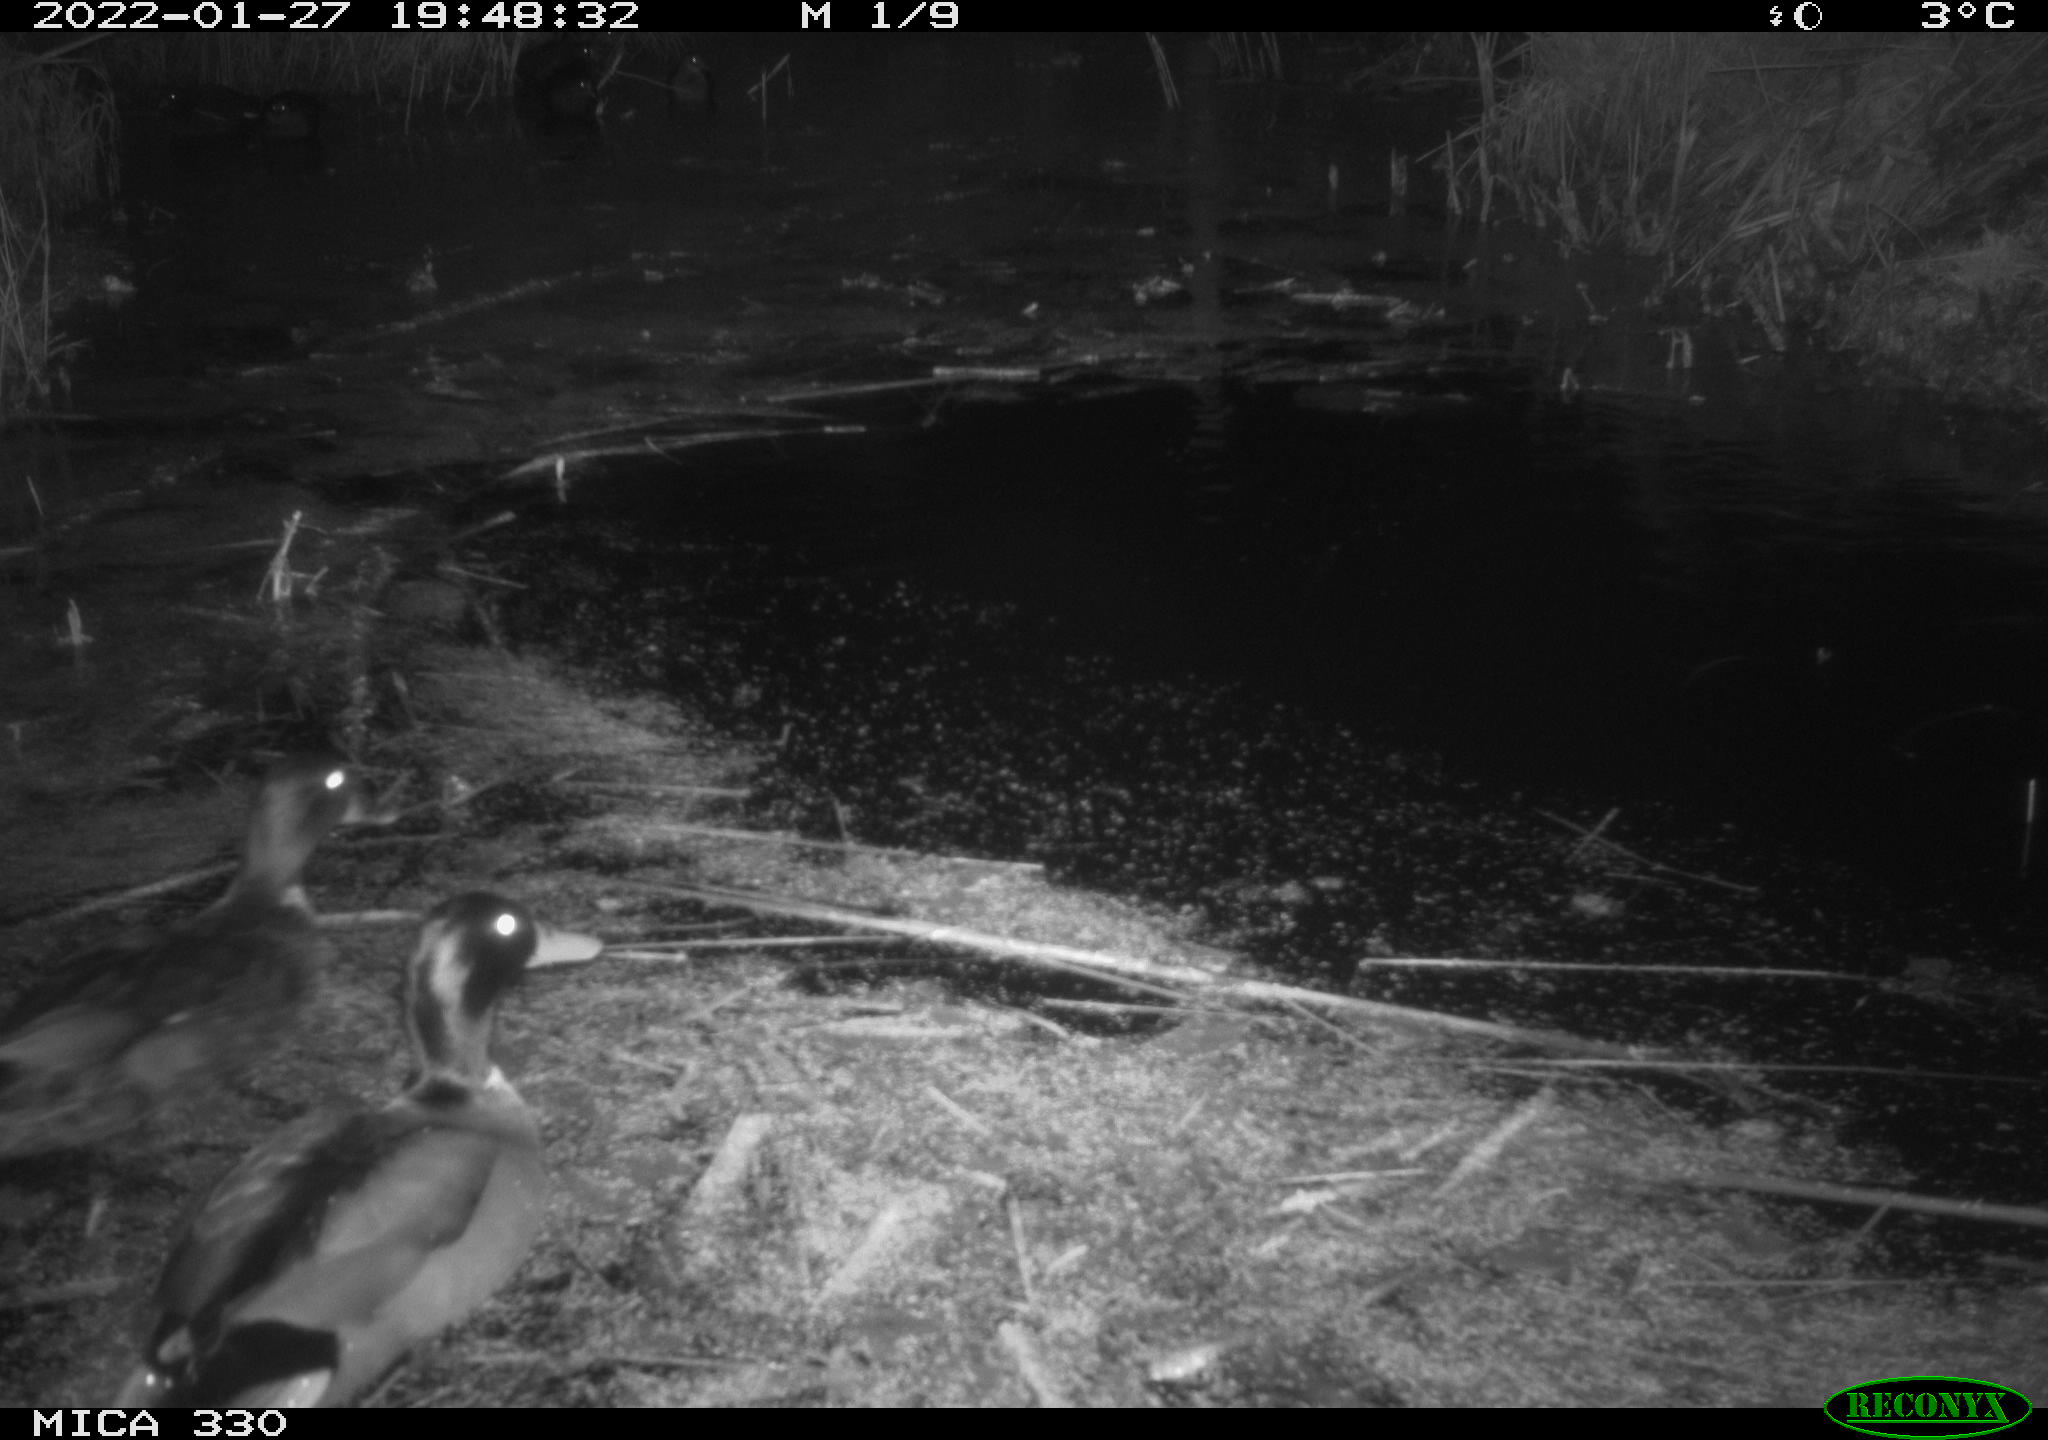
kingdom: Animalia
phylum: Chordata
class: Aves
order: Anseriformes
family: Anatidae
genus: Anas
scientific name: Anas platyrhynchos
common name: Mallard
